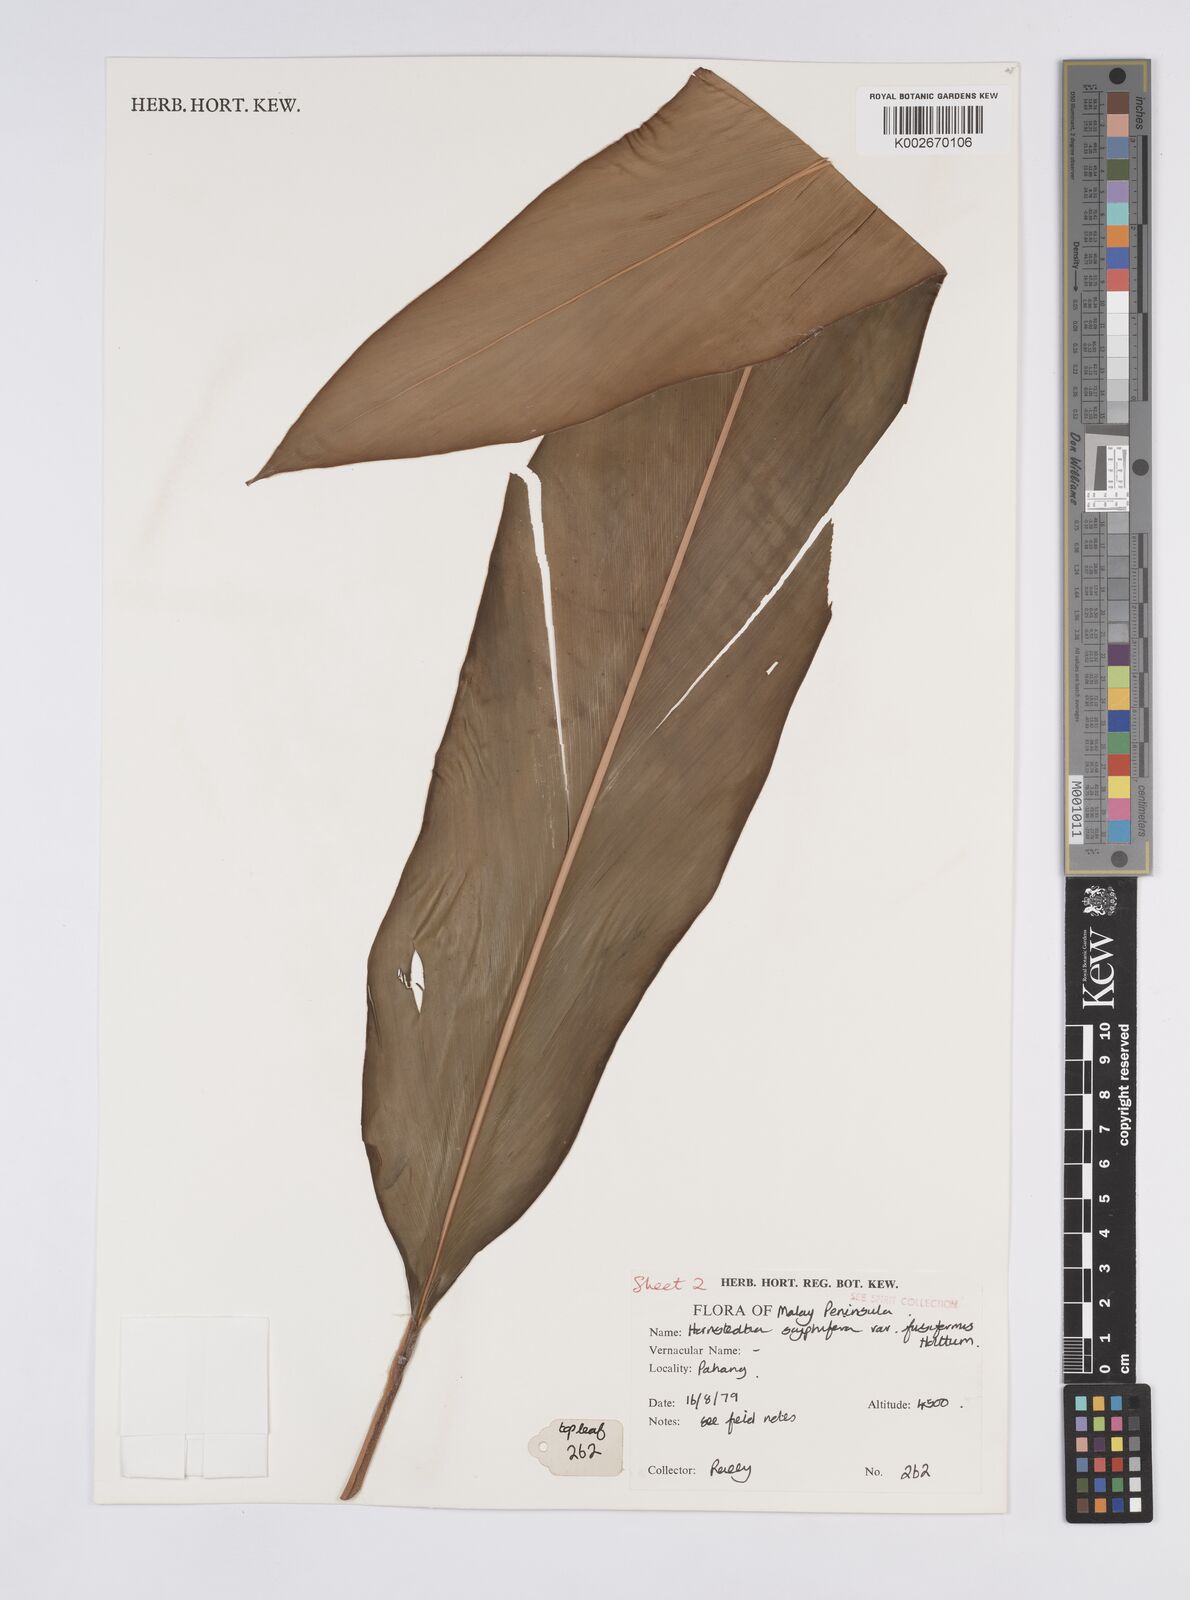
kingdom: Plantae
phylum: Tracheophyta
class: Liliopsida
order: Zingiberales
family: Zingiberaceae
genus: Hornstedtia
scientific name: Hornstedtia scyphifera
